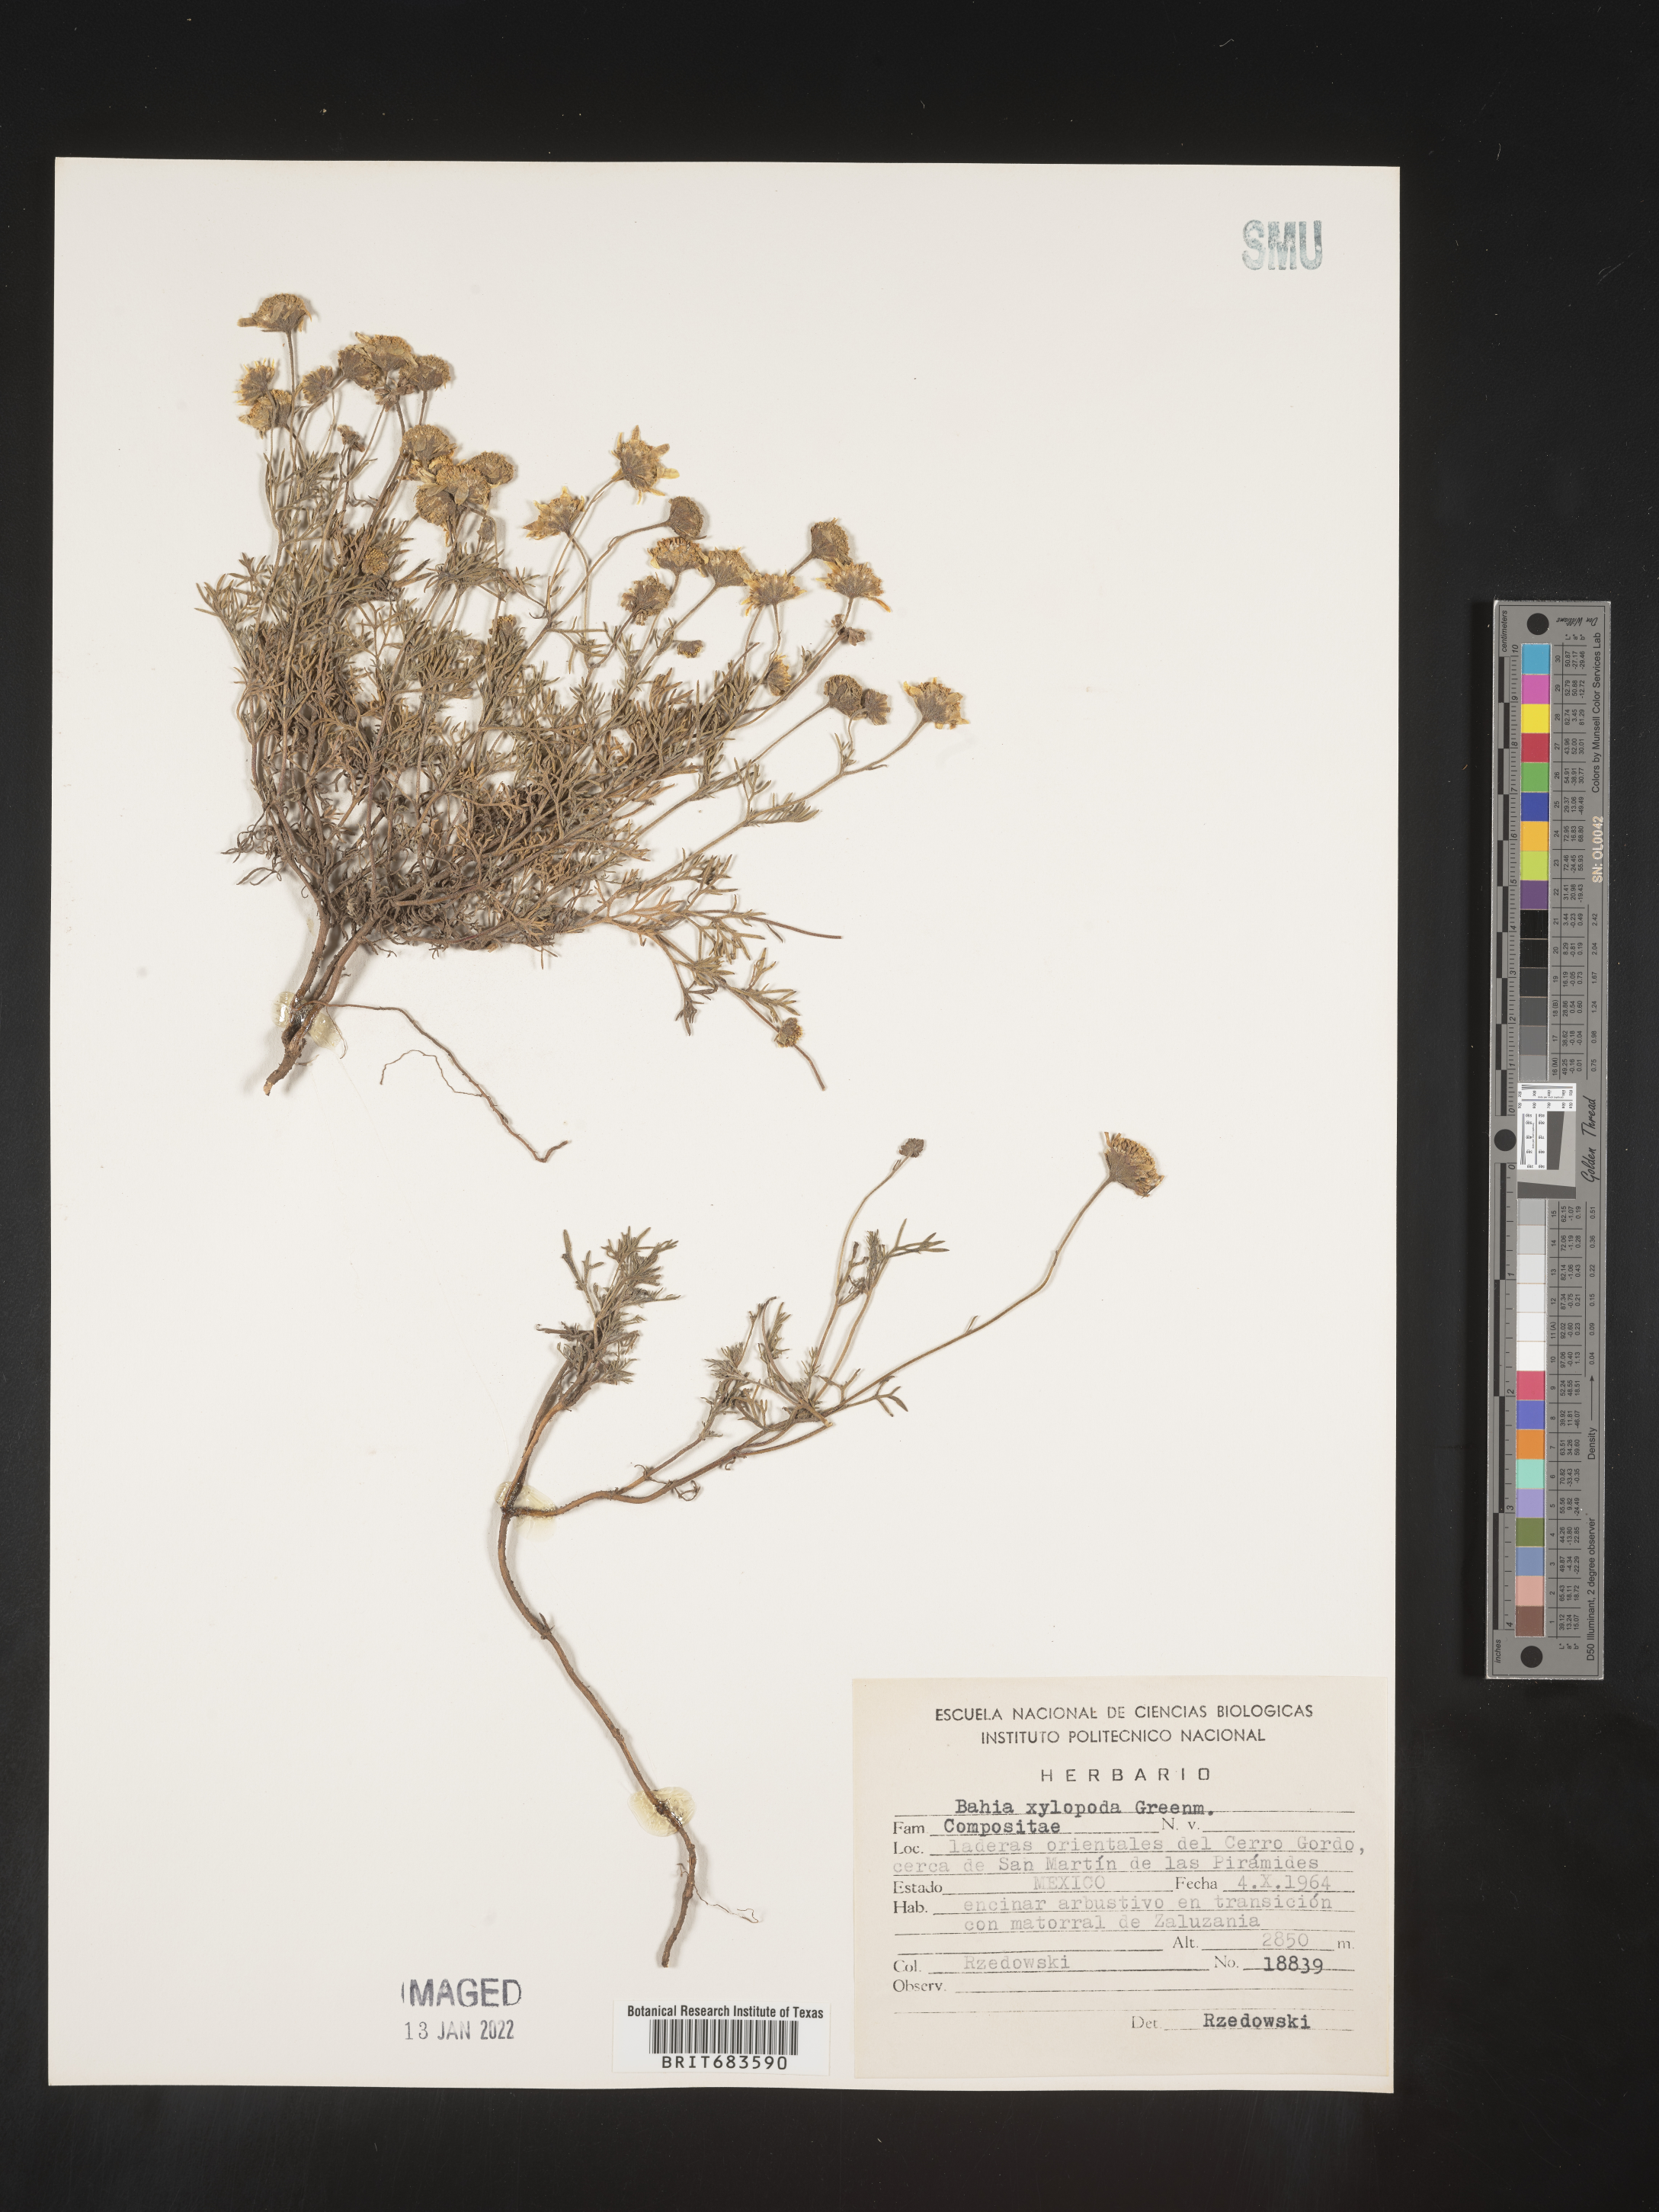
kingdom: Plantae
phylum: Tracheophyta
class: Magnoliopsida
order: Asterales
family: Asteraceae
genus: Bahia
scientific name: Bahia
